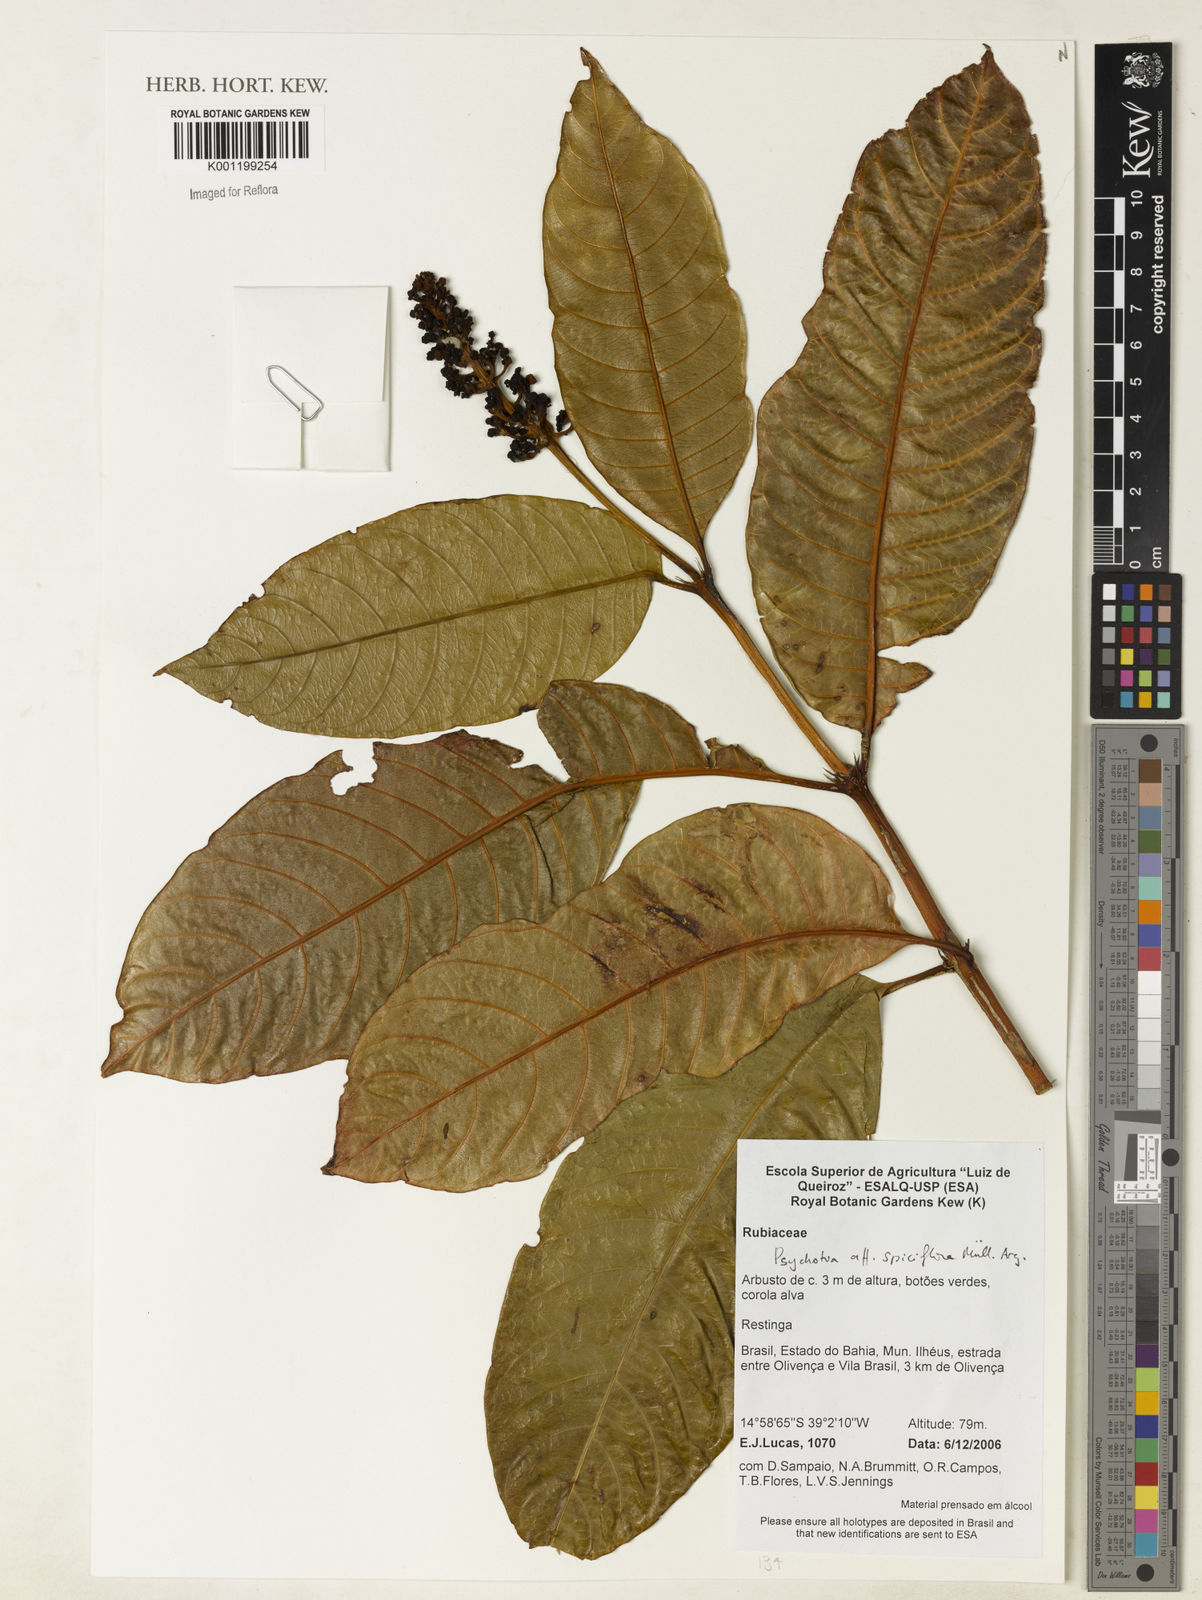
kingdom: Plantae
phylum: Tracheophyta
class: Magnoliopsida
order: Gentianales
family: Rubiaceae
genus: Palicourea
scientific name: Palicourea spicata
